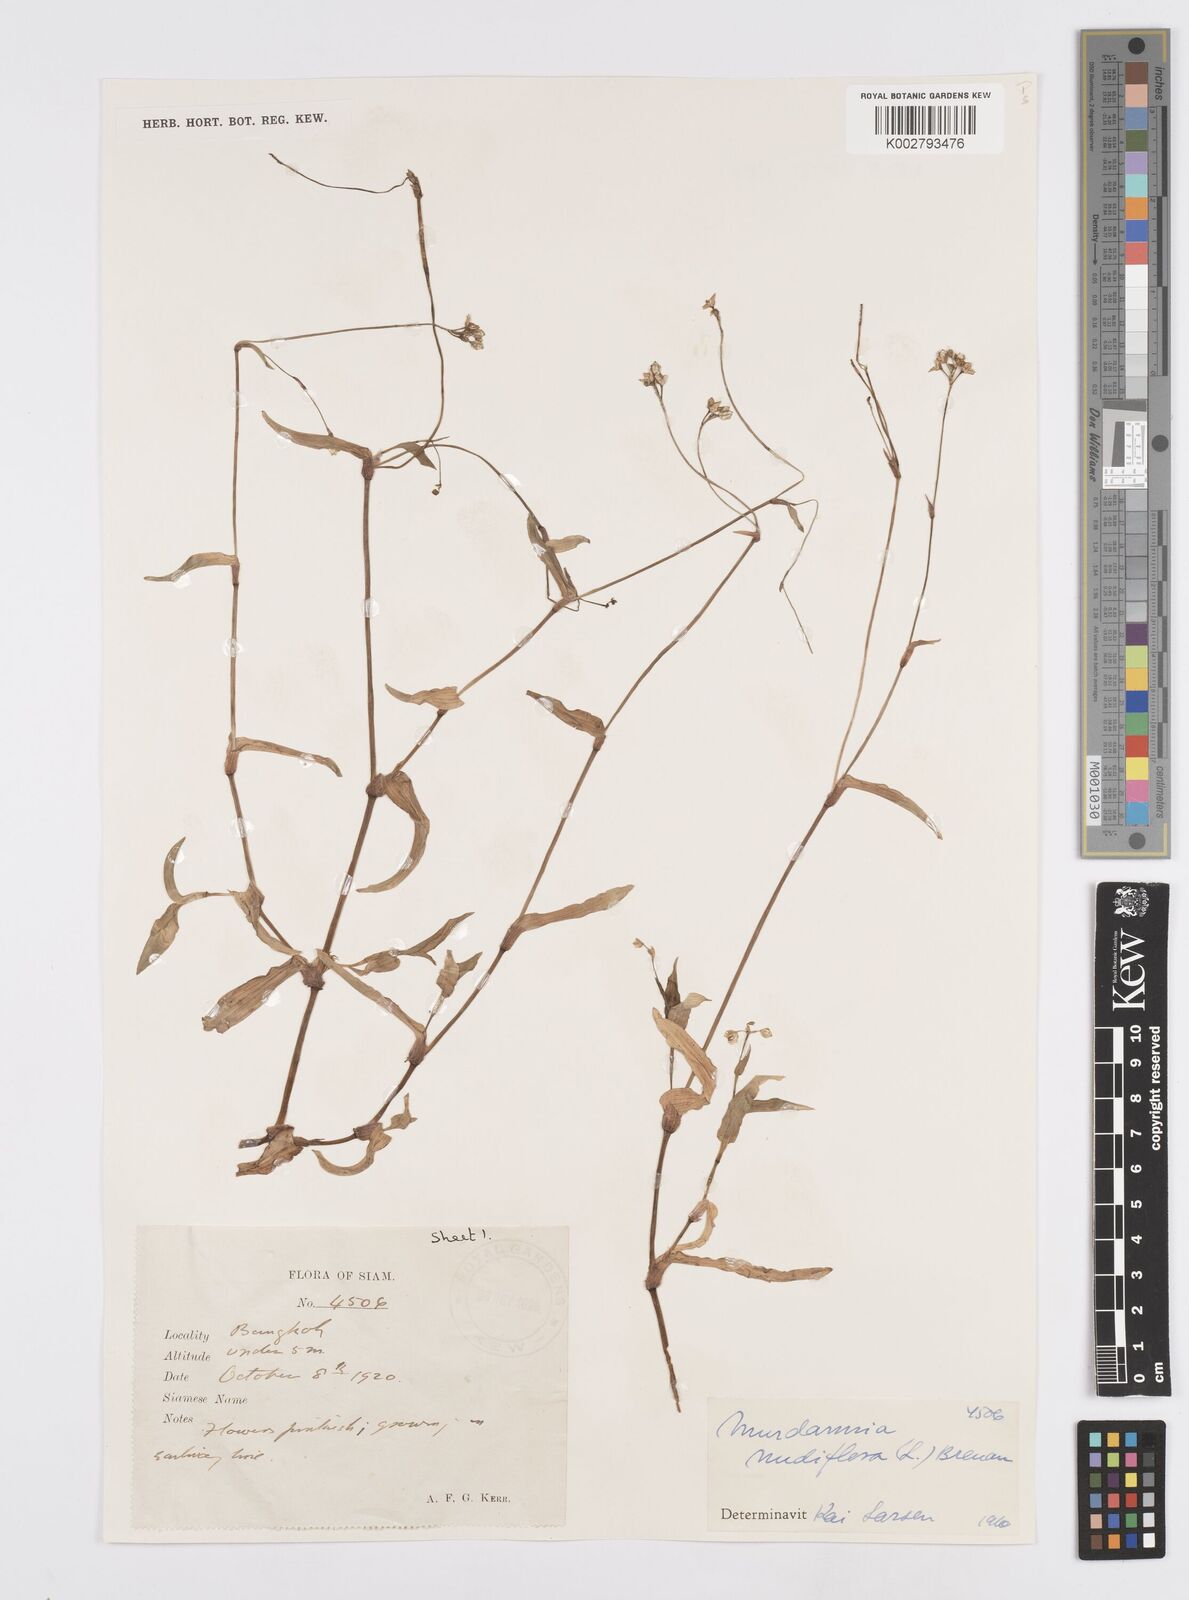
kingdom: Plantae
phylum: Tracheophyta
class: Liliopsida
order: Commelinales
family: Commelinaceae
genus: Murdannia
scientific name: Murdannia nudiflora
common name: Nakedstem dewflower
